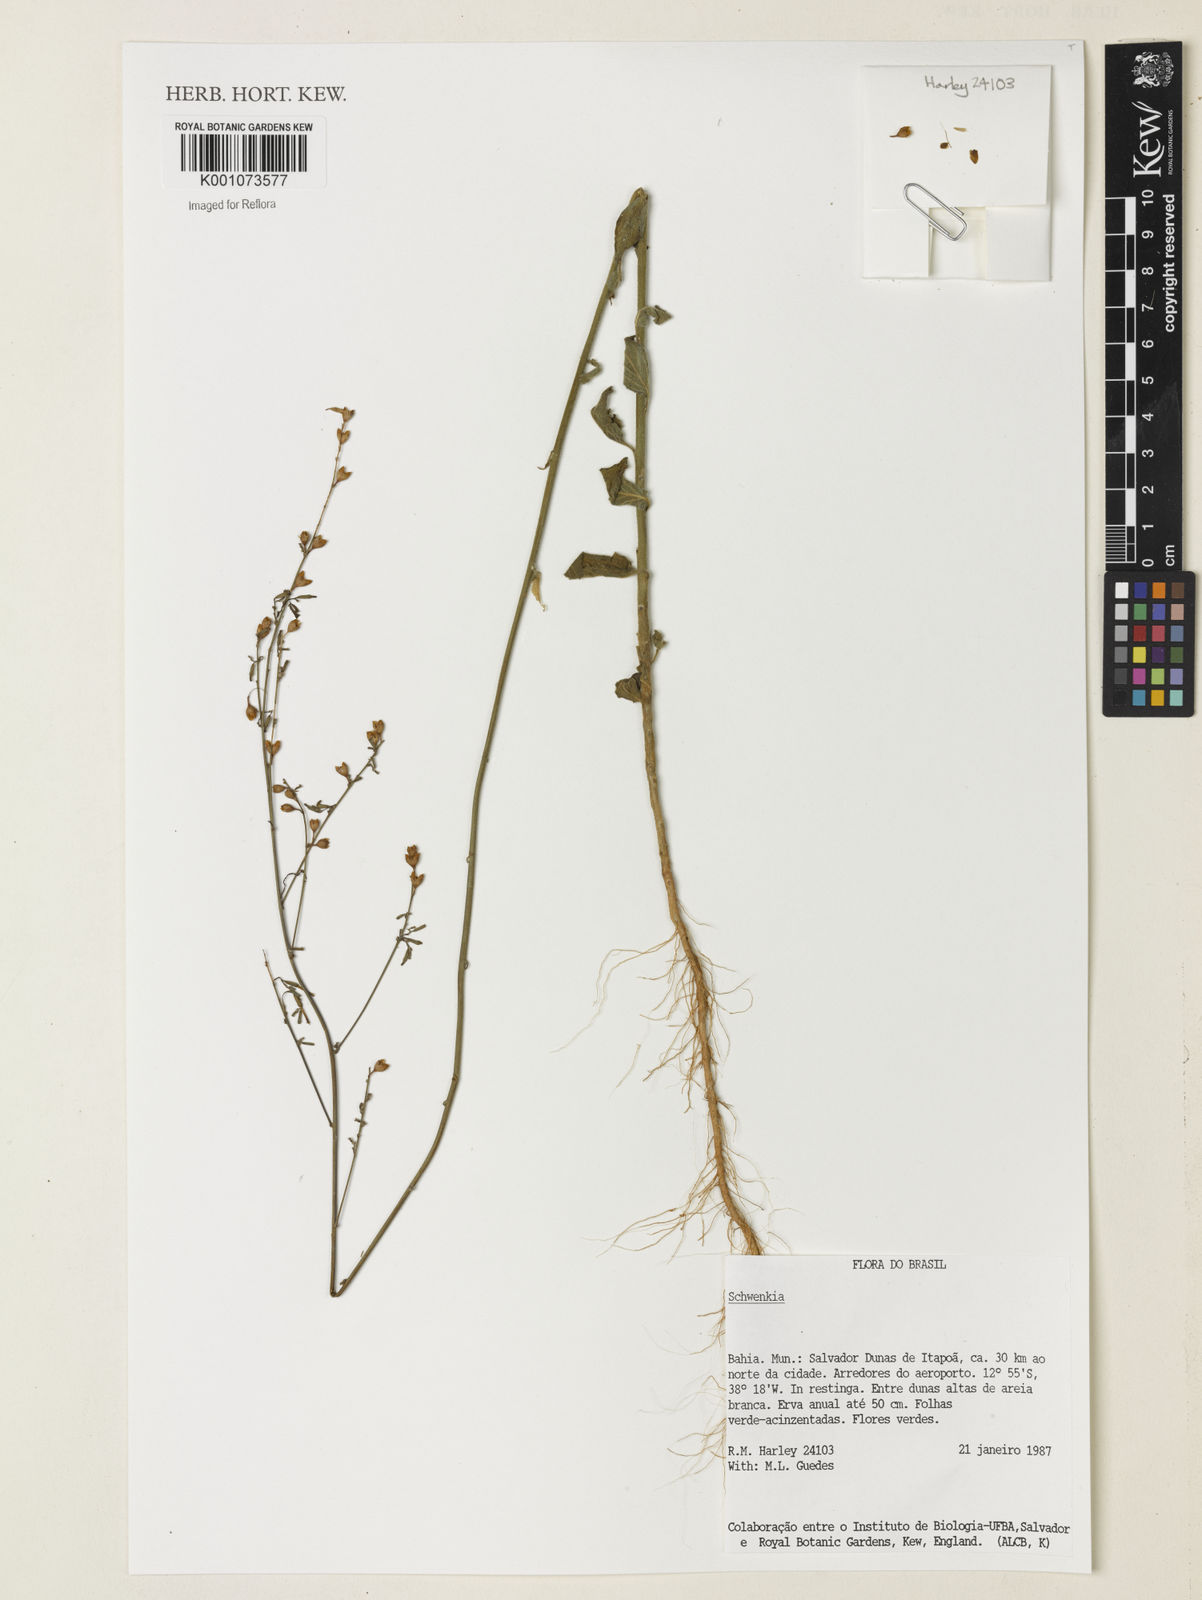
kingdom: Plantae
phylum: Tracheophyta
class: Magnoliopsida
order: Solanales
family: Solanaceae
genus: Schwenckia
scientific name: Schwenckia
